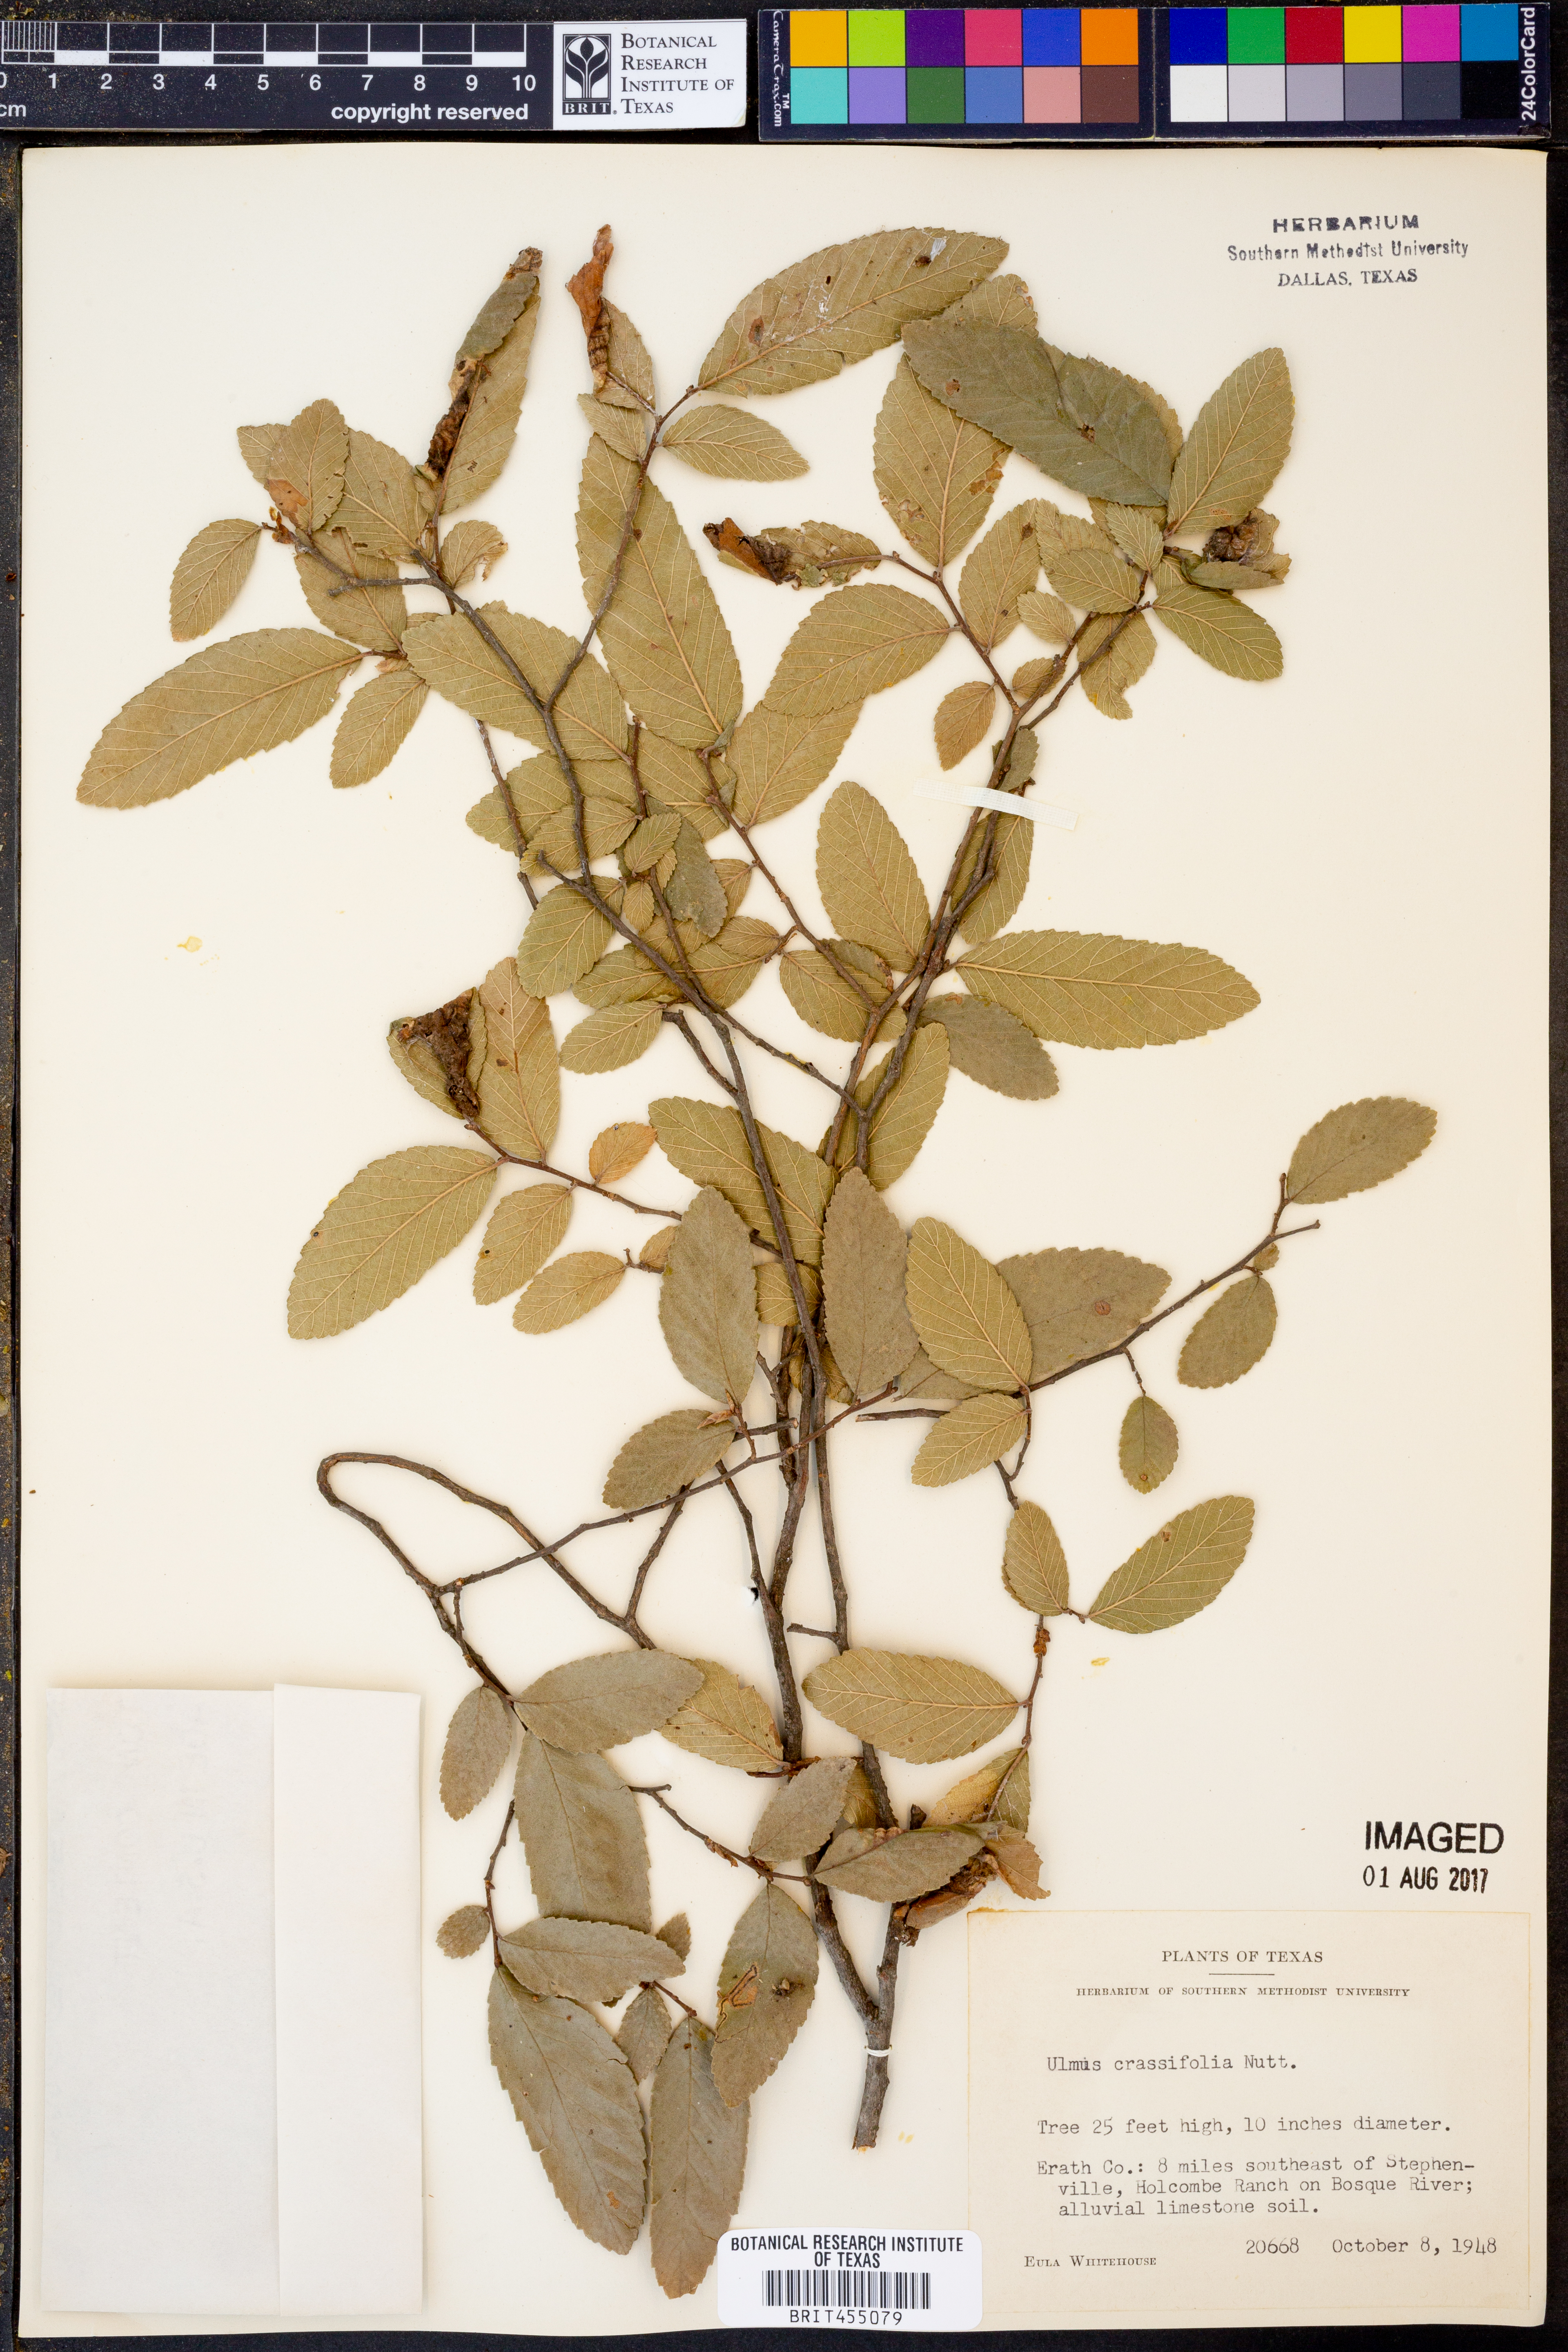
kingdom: Plantae
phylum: Tracheophyta
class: Magnoliopsida
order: Rosales
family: Ulmaceae
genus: Ulmus
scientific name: Ulmus crassifolia
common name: Basket elm
